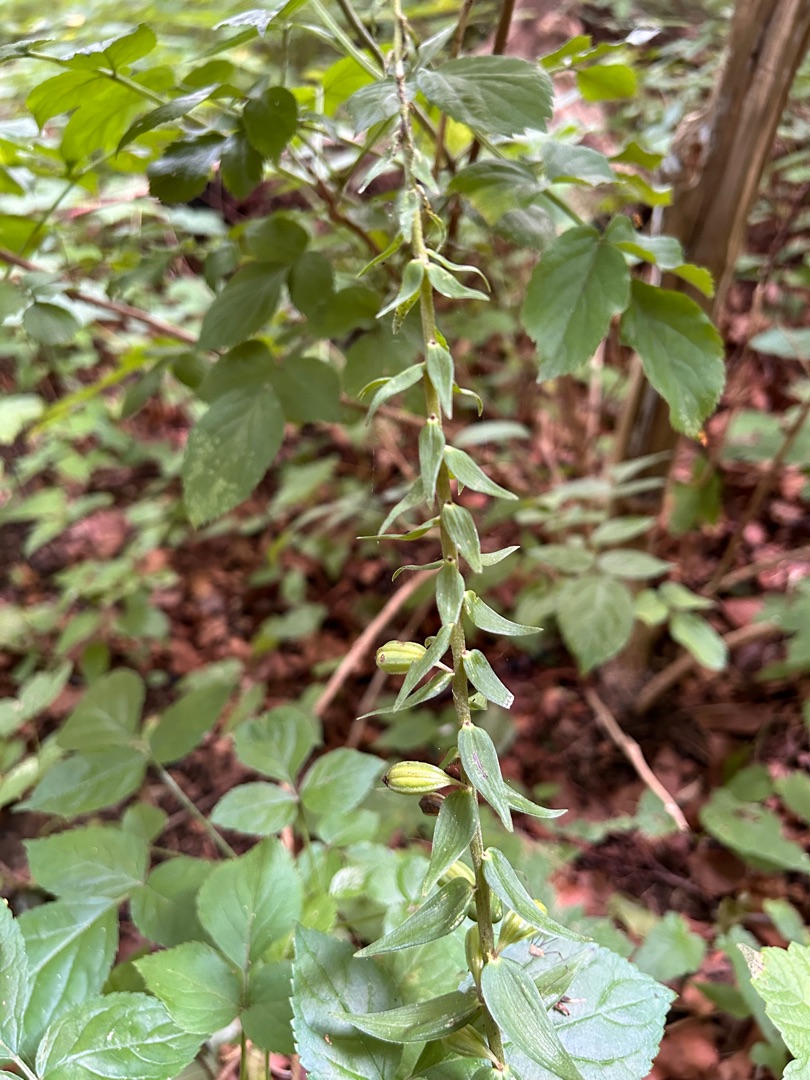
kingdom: Plantae
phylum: Tracheophyta
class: Liliopsida
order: Asparagales
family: Orchidaceae
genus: Epipactis
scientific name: Epipactis helleborine
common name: Skov-hullæbe
